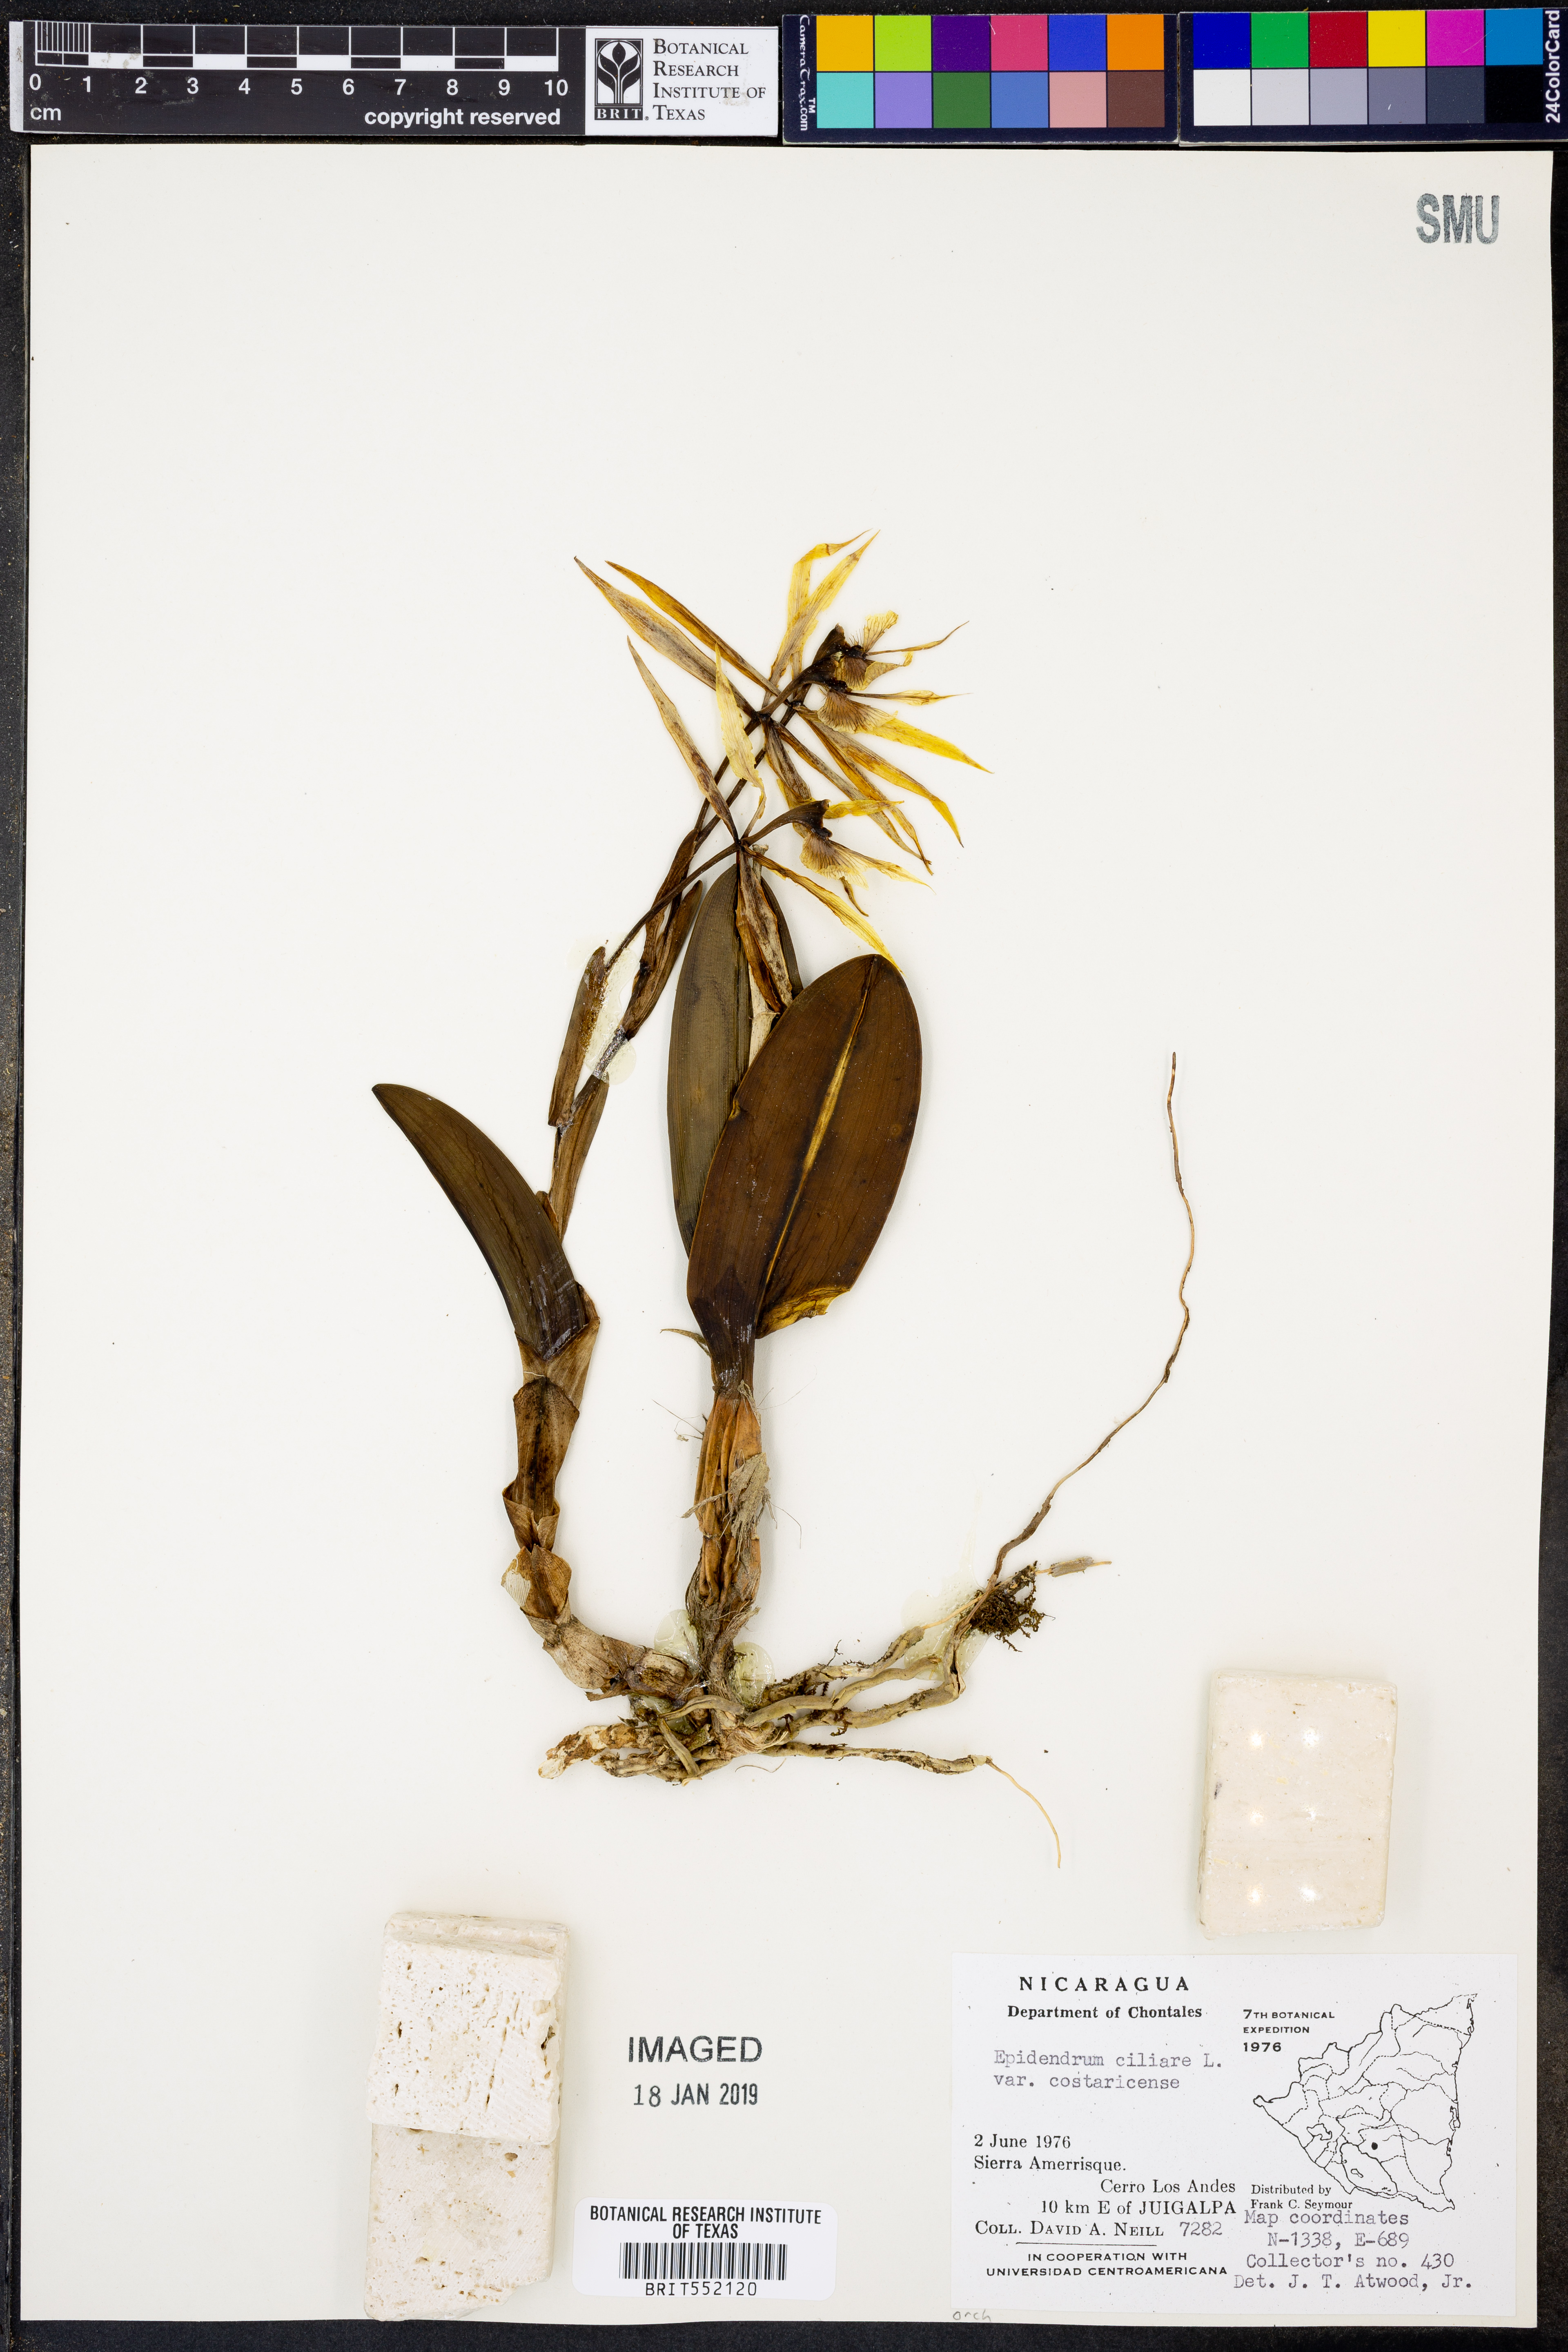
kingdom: Plantae
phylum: Tracheophyta
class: Liliopsida
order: Asparagales
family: Orchidaceae
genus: Epidendrum
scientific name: Epidendrum ciliare
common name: Eyelash orchid
